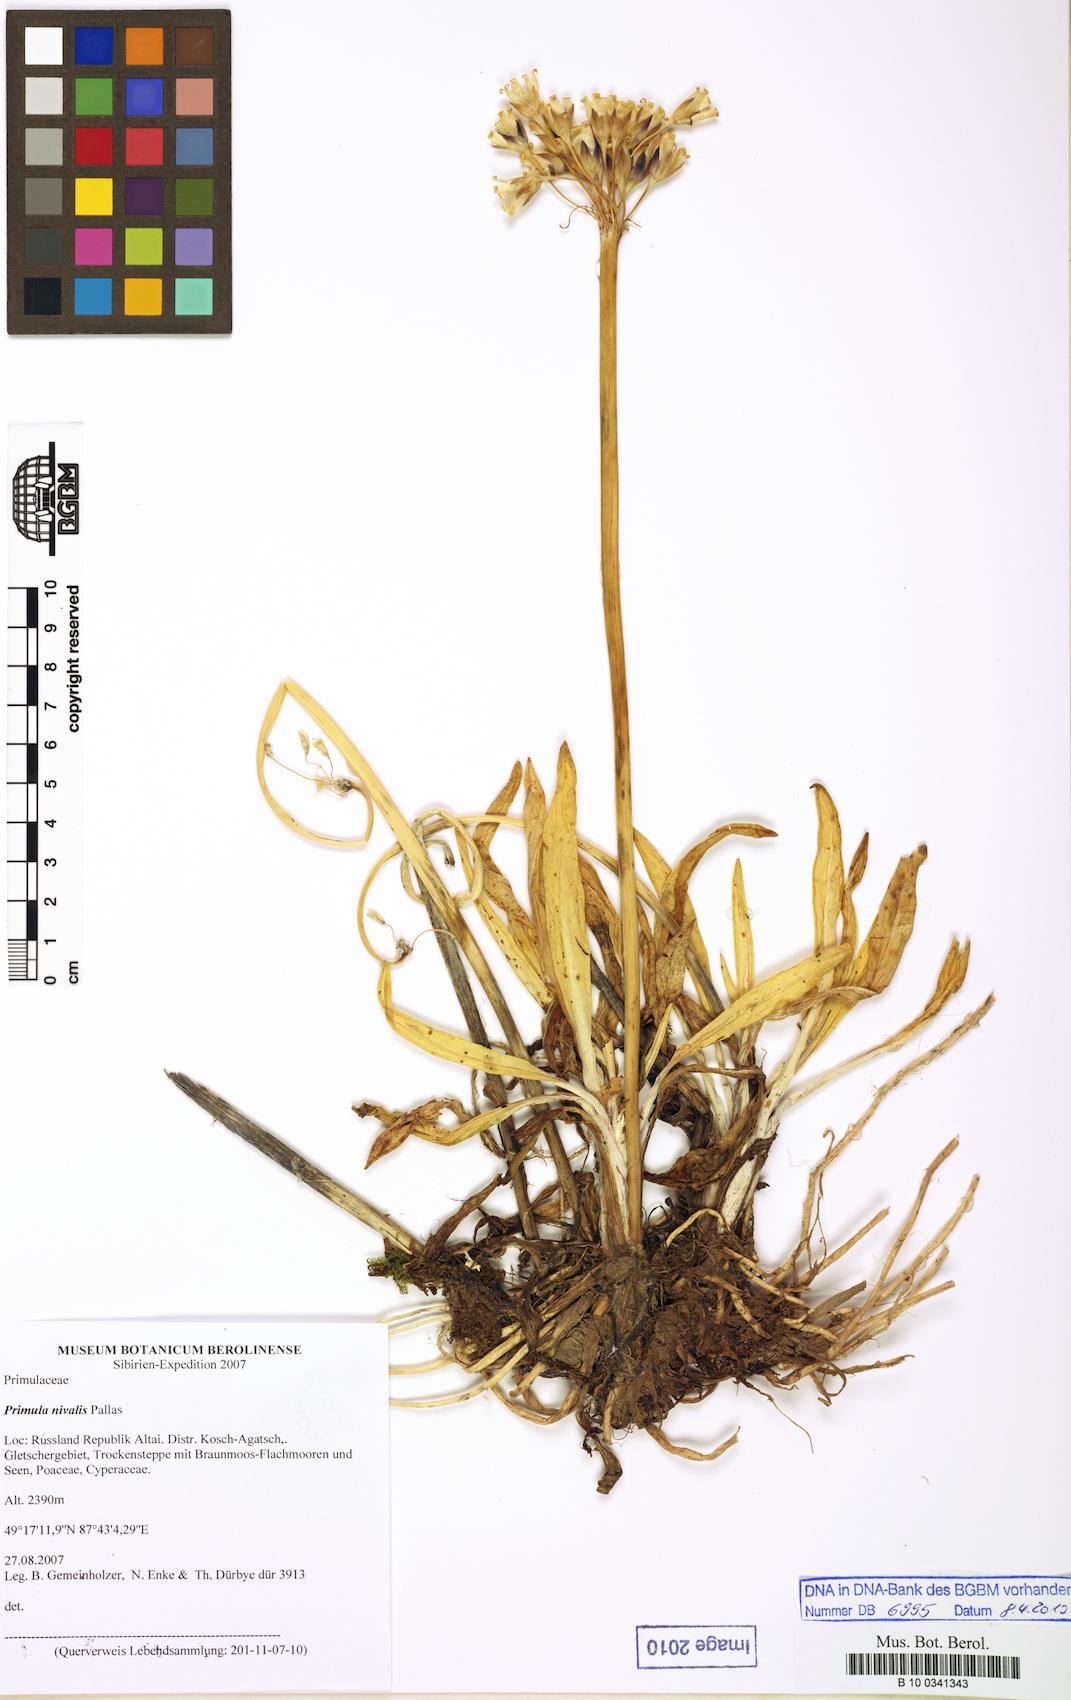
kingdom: Plantae
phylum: Tracheophyta
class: Magnoliopsida
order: Ericales
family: Primulaceae
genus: Primula
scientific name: Primula nivalis
